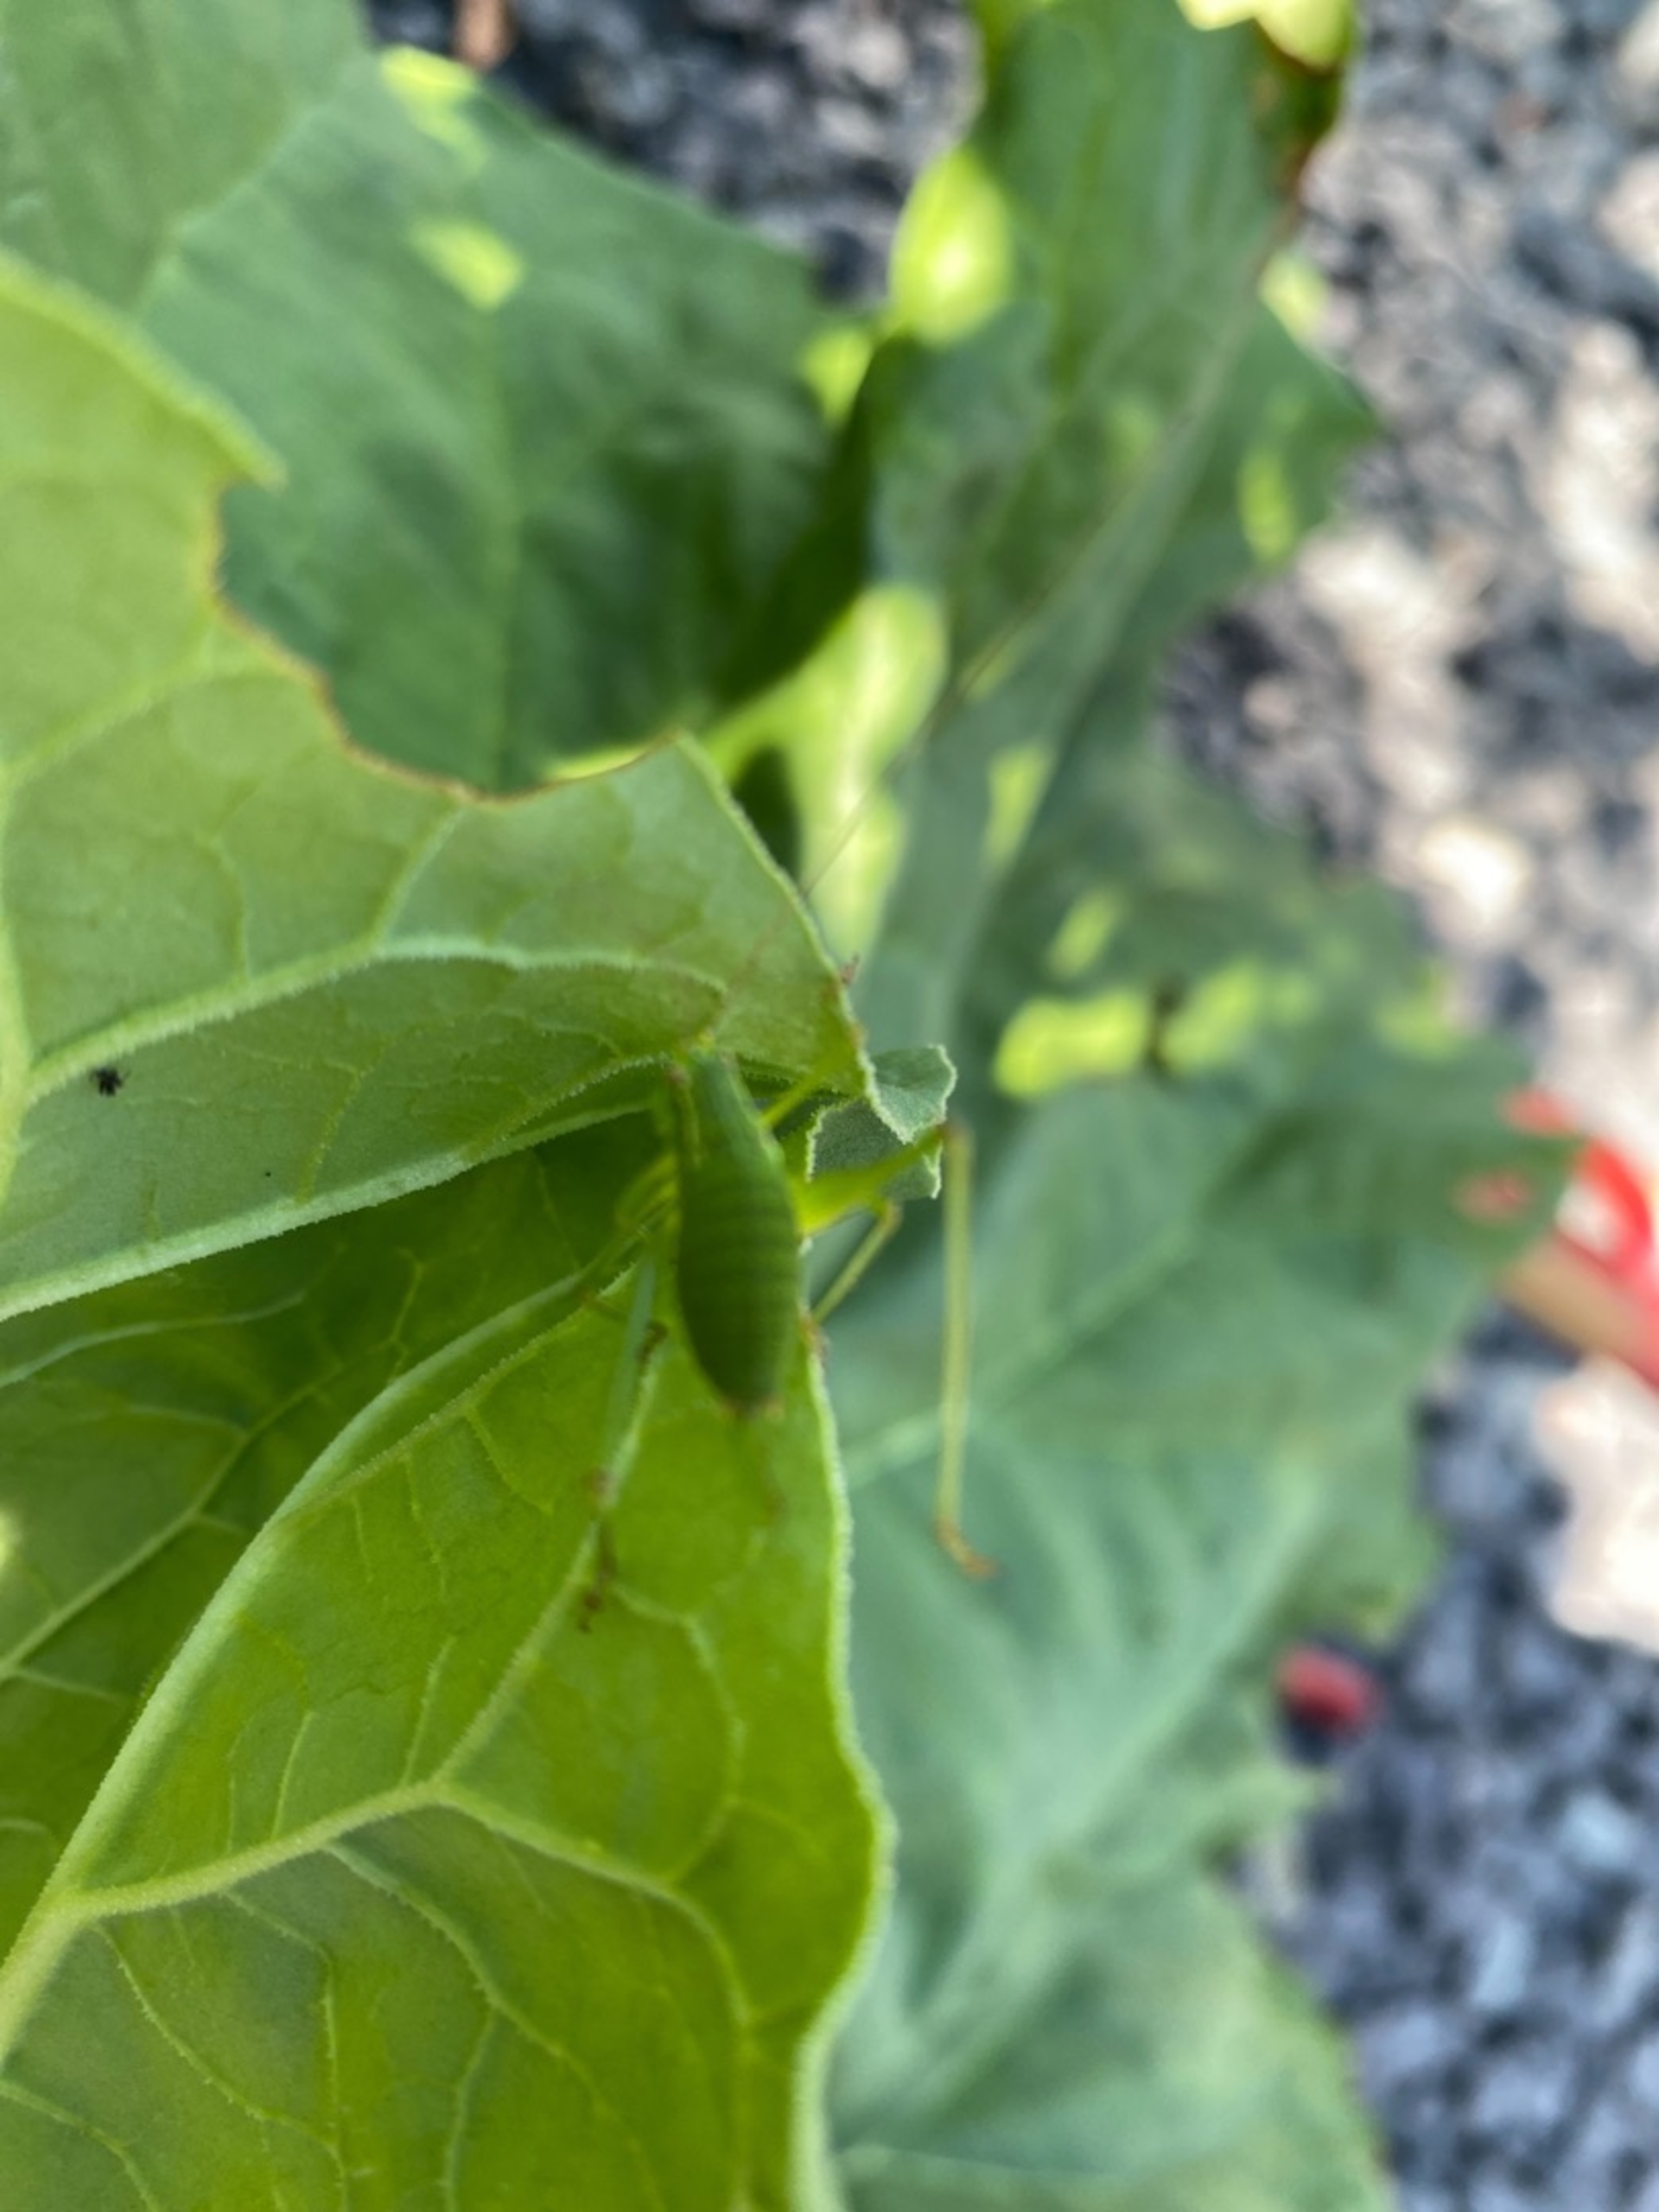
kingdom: Animalia
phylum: Arthropoda
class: Insecta
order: Orthoptera
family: Tettigoniidae
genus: Leptophyes
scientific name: Leptophyes punctatissima
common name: Krumknivgræshoppe
